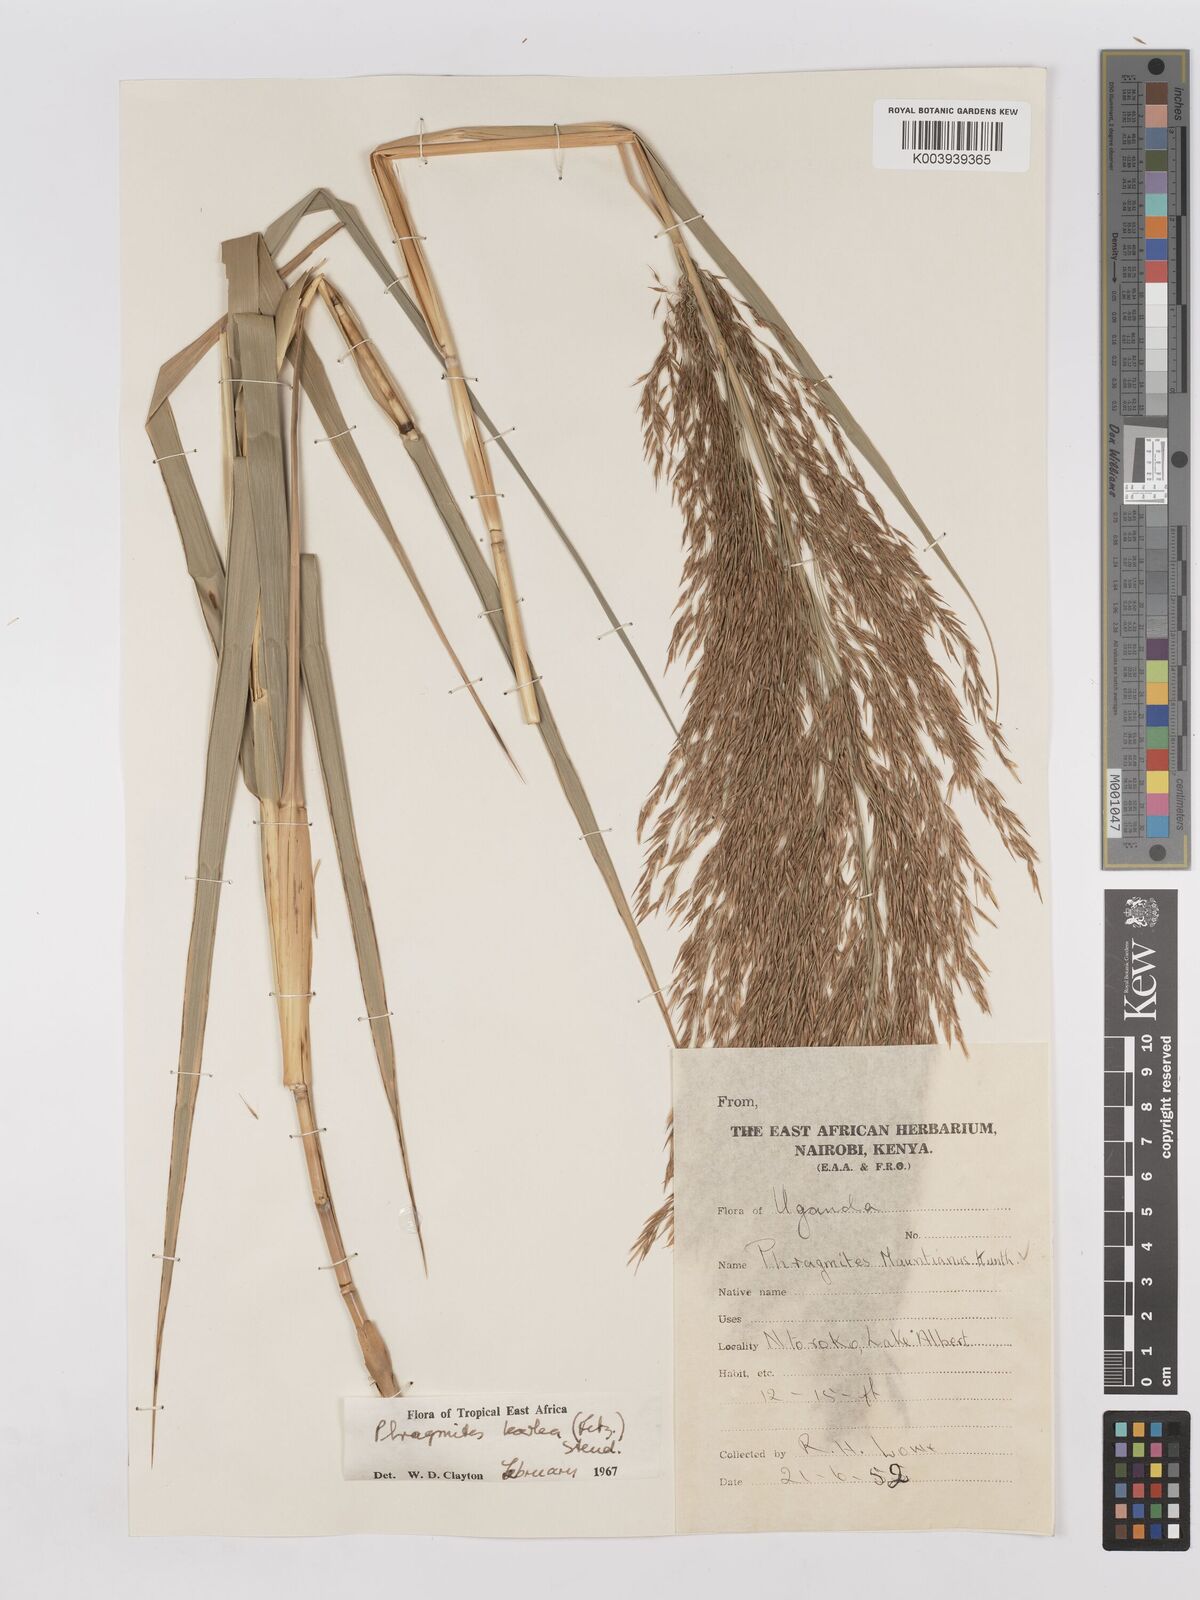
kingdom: Plantae
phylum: Tracheophyta
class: Liliopsida
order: Poales
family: Poaceae
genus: Phragmites
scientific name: Phragmites karka
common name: Tropical reed
